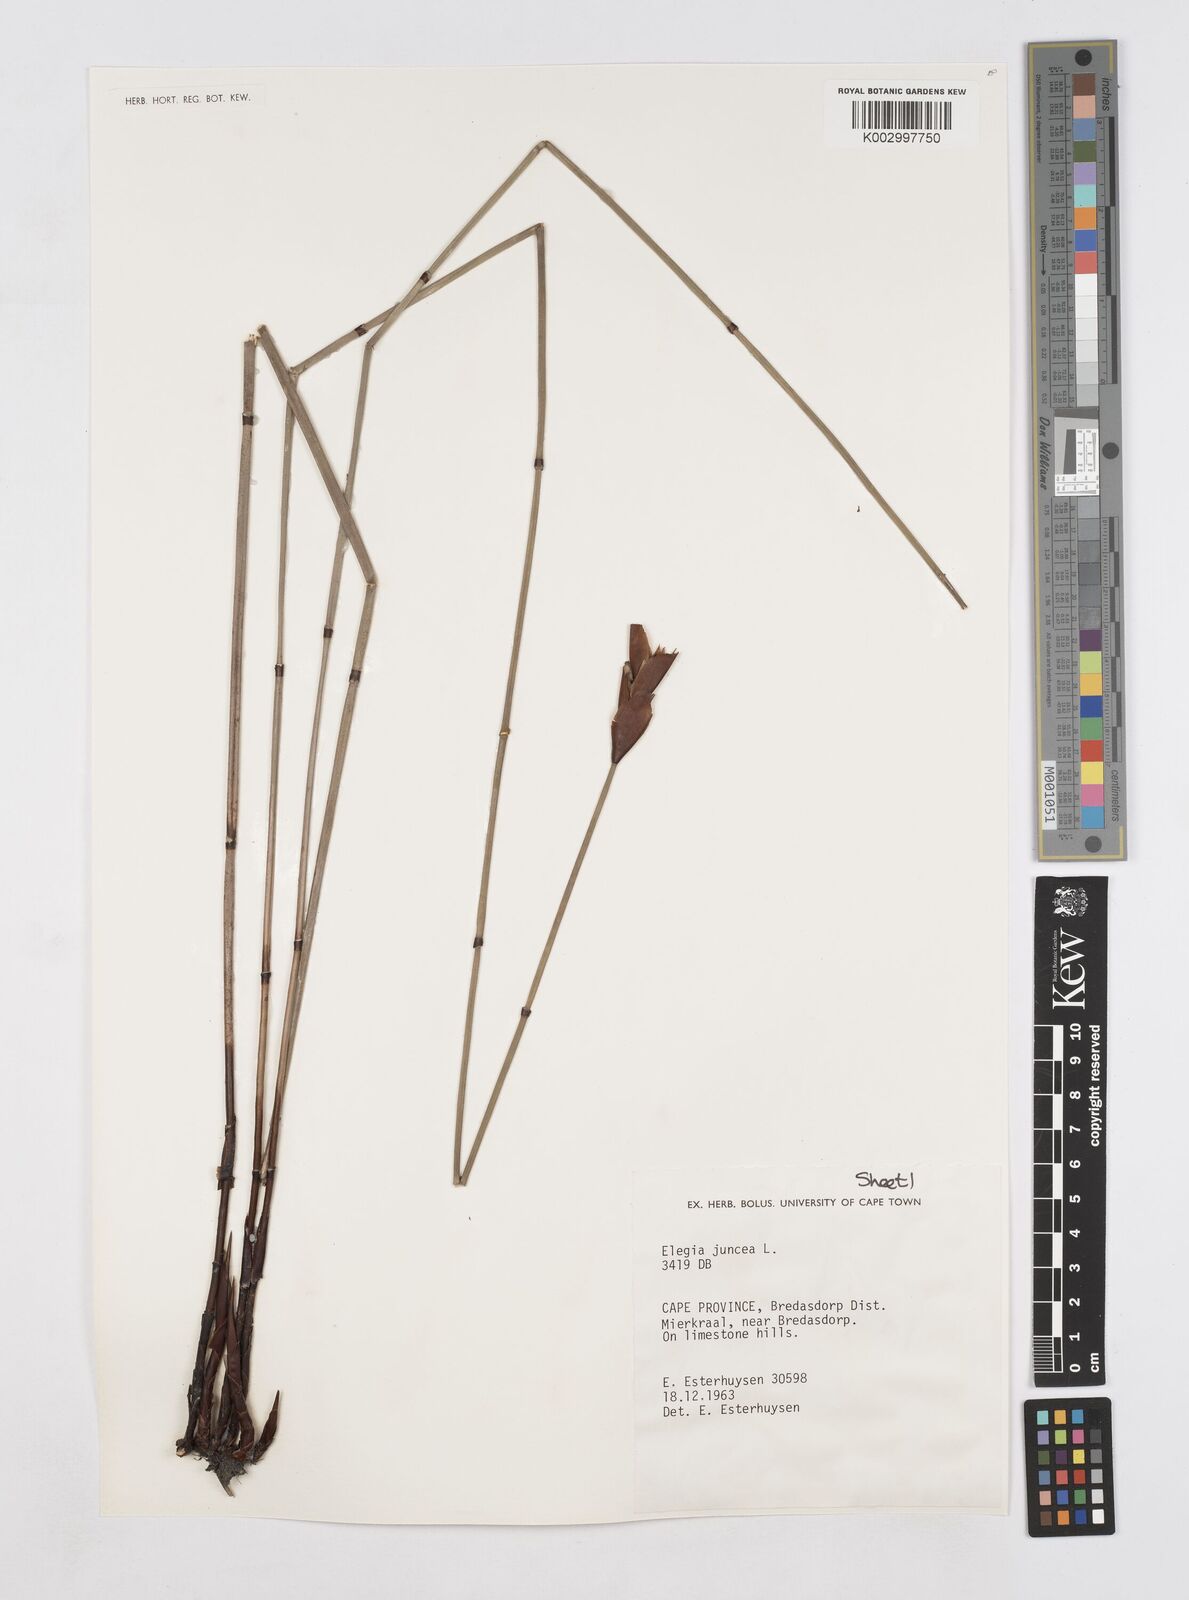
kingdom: Plantae
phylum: Tracheophyta
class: Liliopsida
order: Poales
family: Restionaceae
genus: Elegia
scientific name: Elegia juncea
